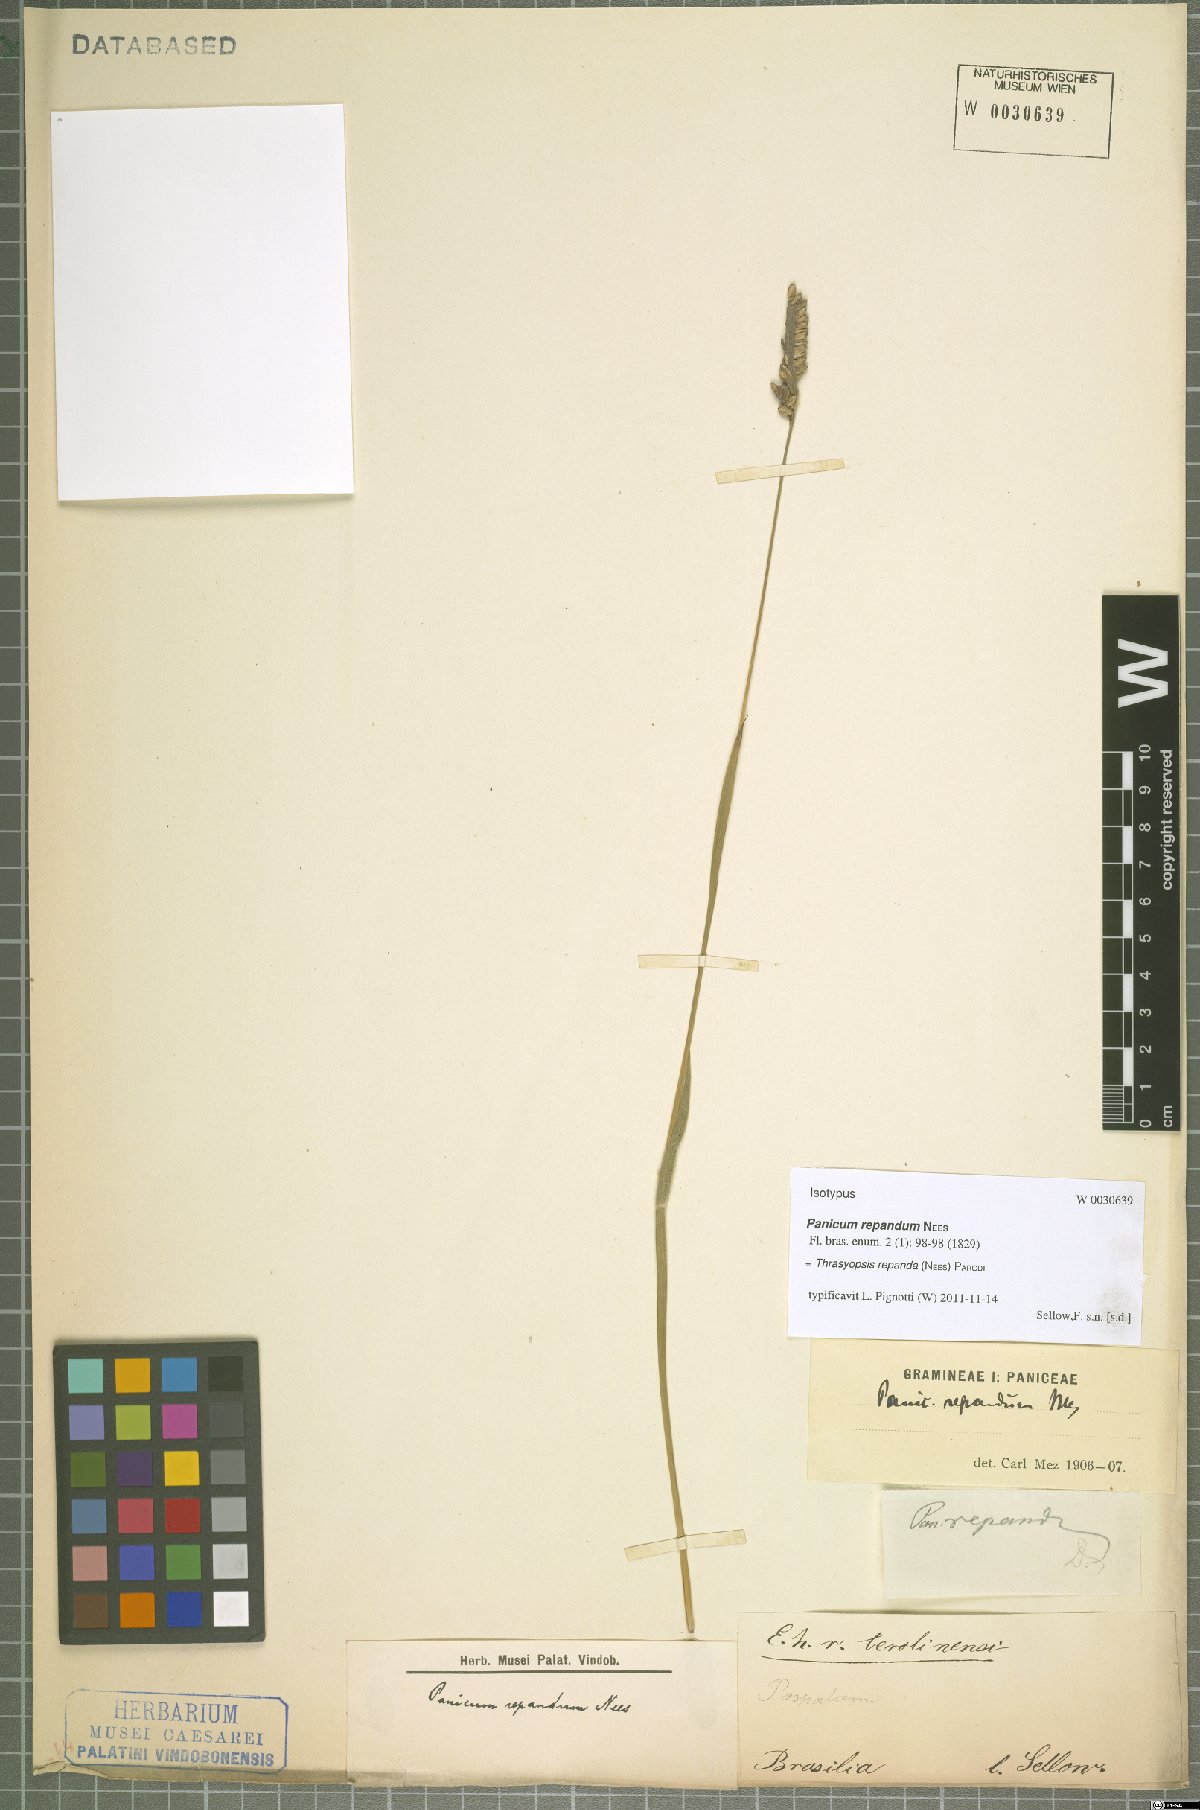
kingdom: Plantae
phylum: Tracheophyta
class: Liliopsida
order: Poales
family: Poaceae
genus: Paspalum
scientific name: Paspalum repandum
